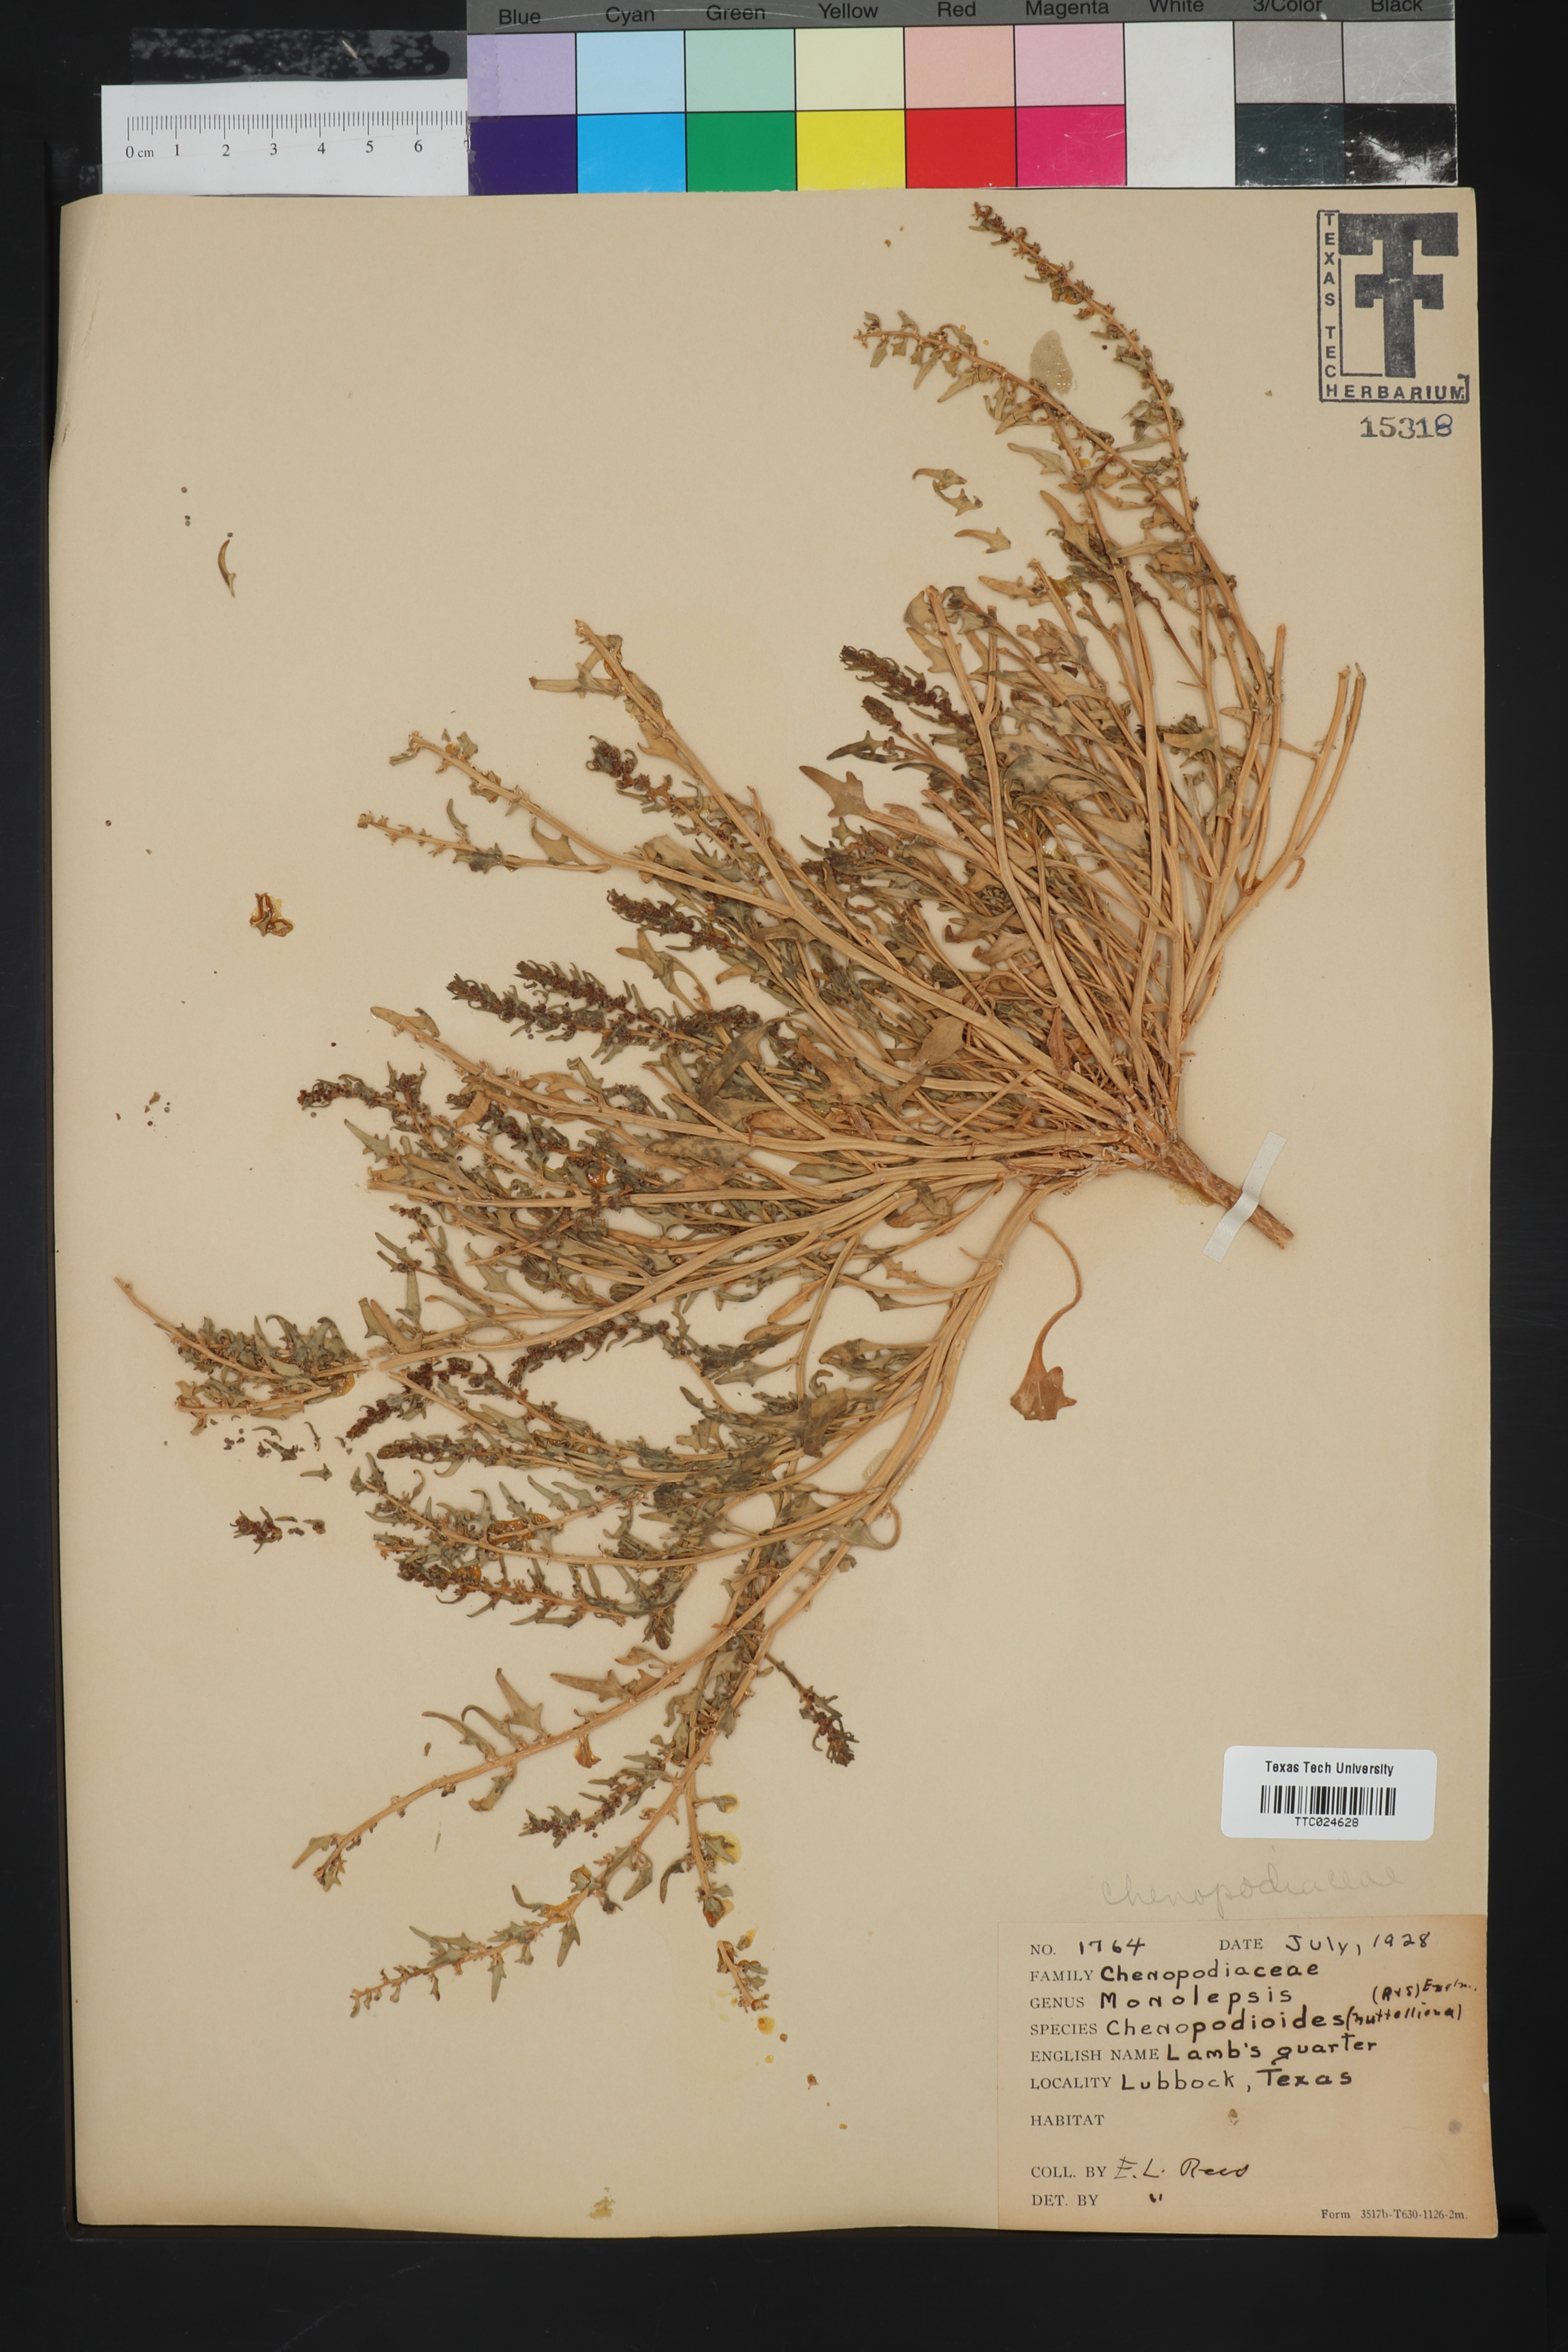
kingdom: Plantae
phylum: Tracheophyta
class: Magnoliopsida
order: Caryophyllales
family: Amaranthaceae
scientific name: Amaranthaceae
